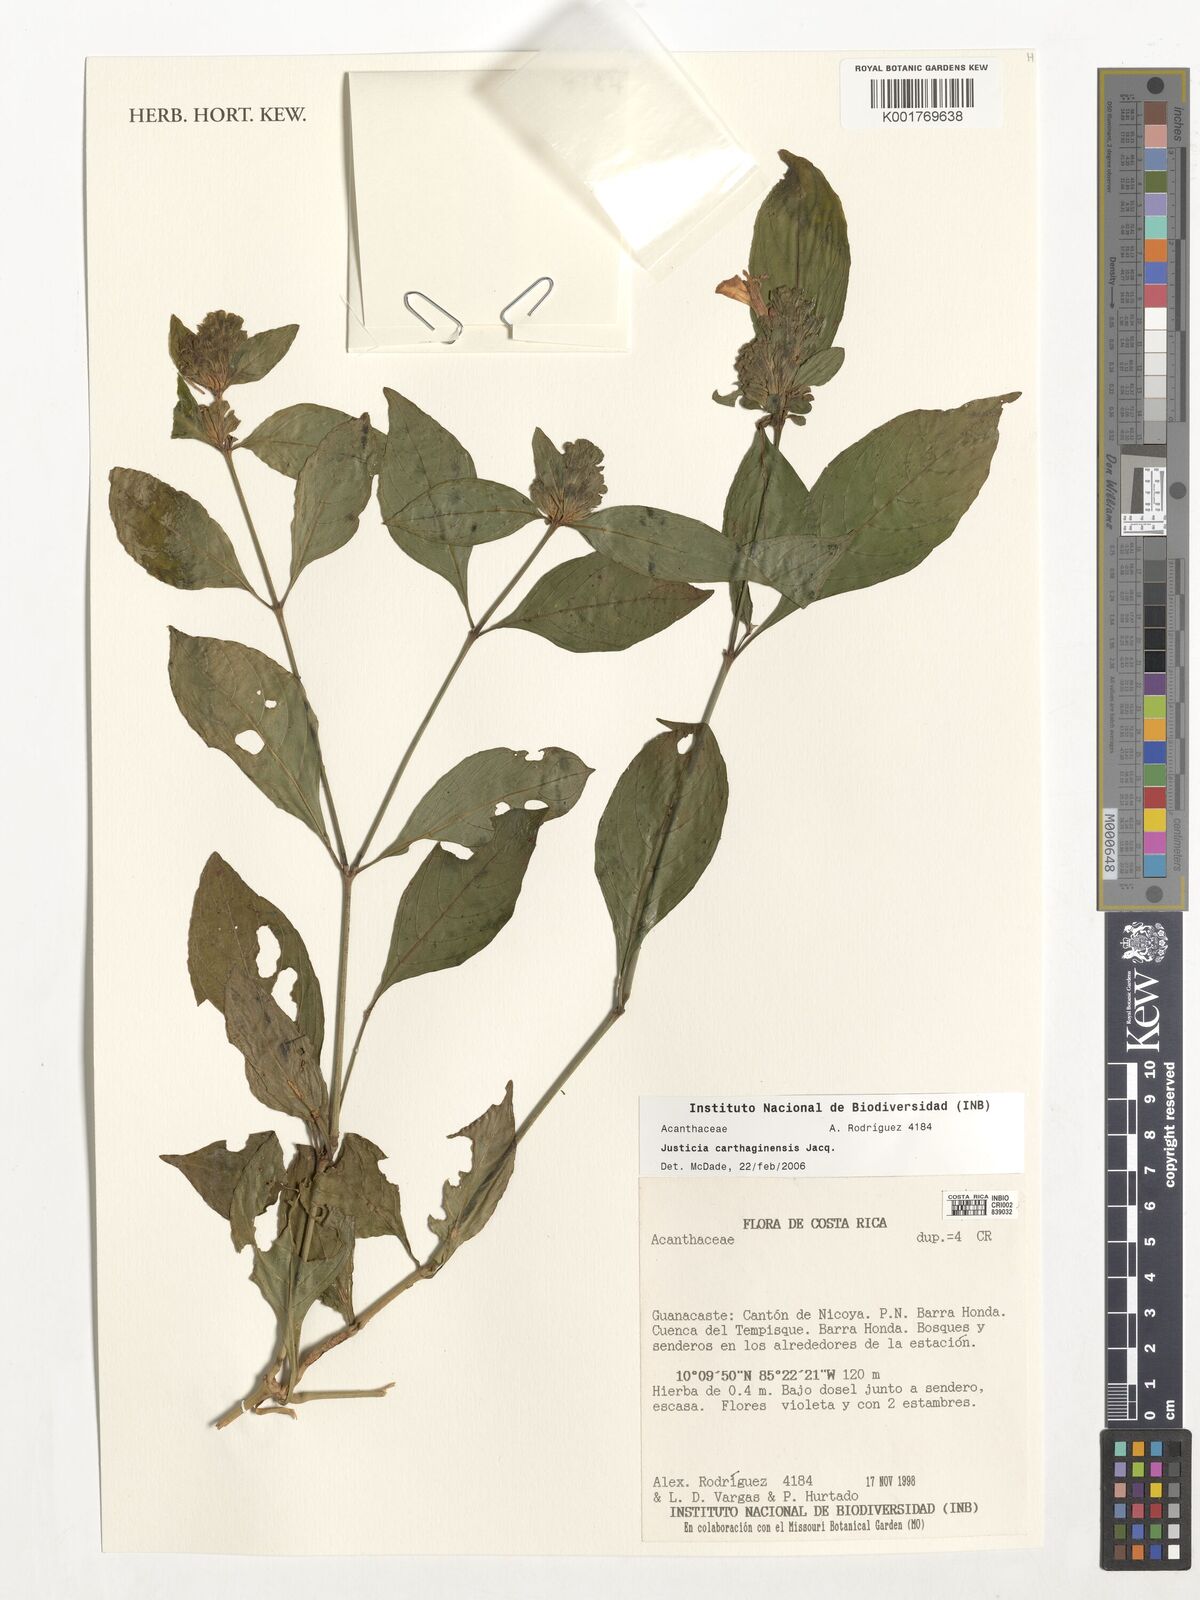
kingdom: Plantae
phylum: Tracheophyta
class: Magnoliopsida
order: Lamiales
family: Acanthaceae
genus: Justicia
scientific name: Justicia carthaginensis
